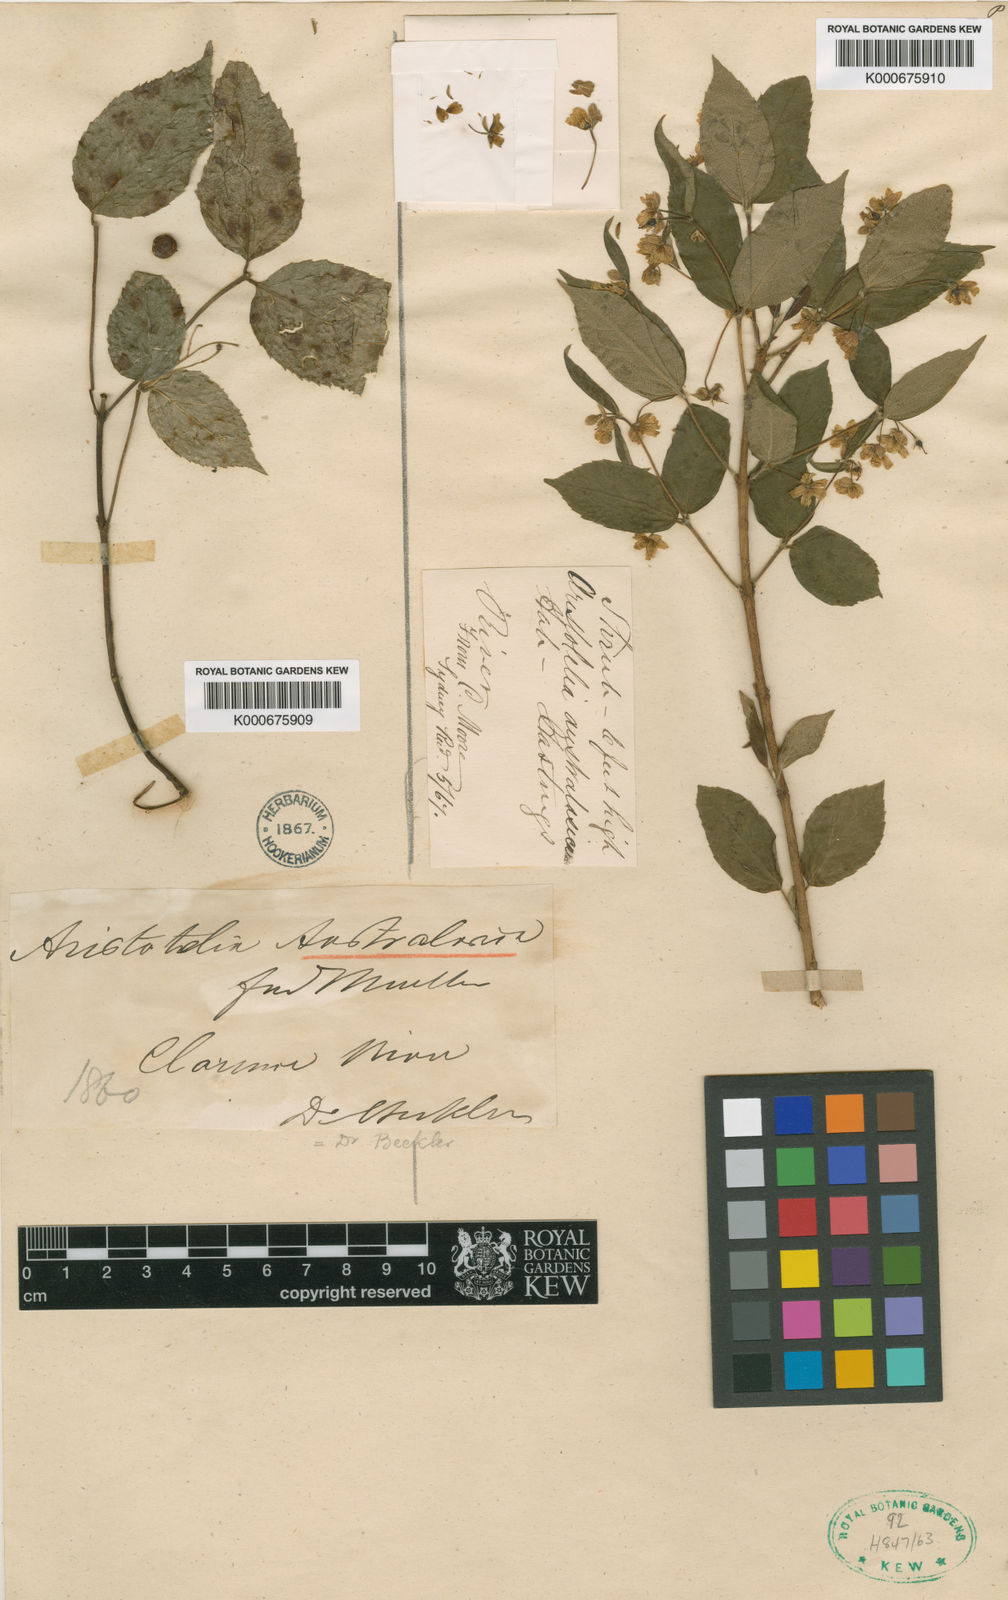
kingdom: Plantae
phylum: Tracheophyta
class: Magnoliopsida
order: Oxalidales
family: Elaeocarpaceae
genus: Aristotelia
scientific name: Aristotelia australasica
